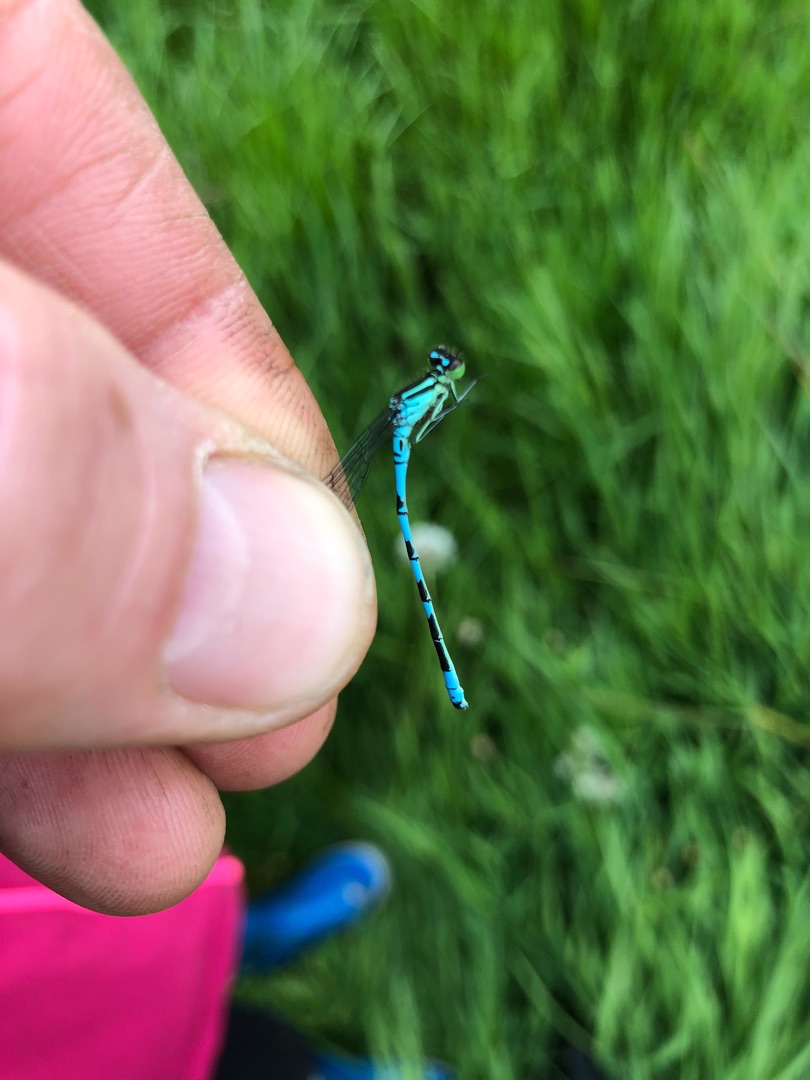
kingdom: Animalia
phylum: Arthropoda
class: Insecta
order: Odonata
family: Coenagrionidae
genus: Coenagrion
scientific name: Coenagrion hastulatum
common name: Spyd-vandnymfe
